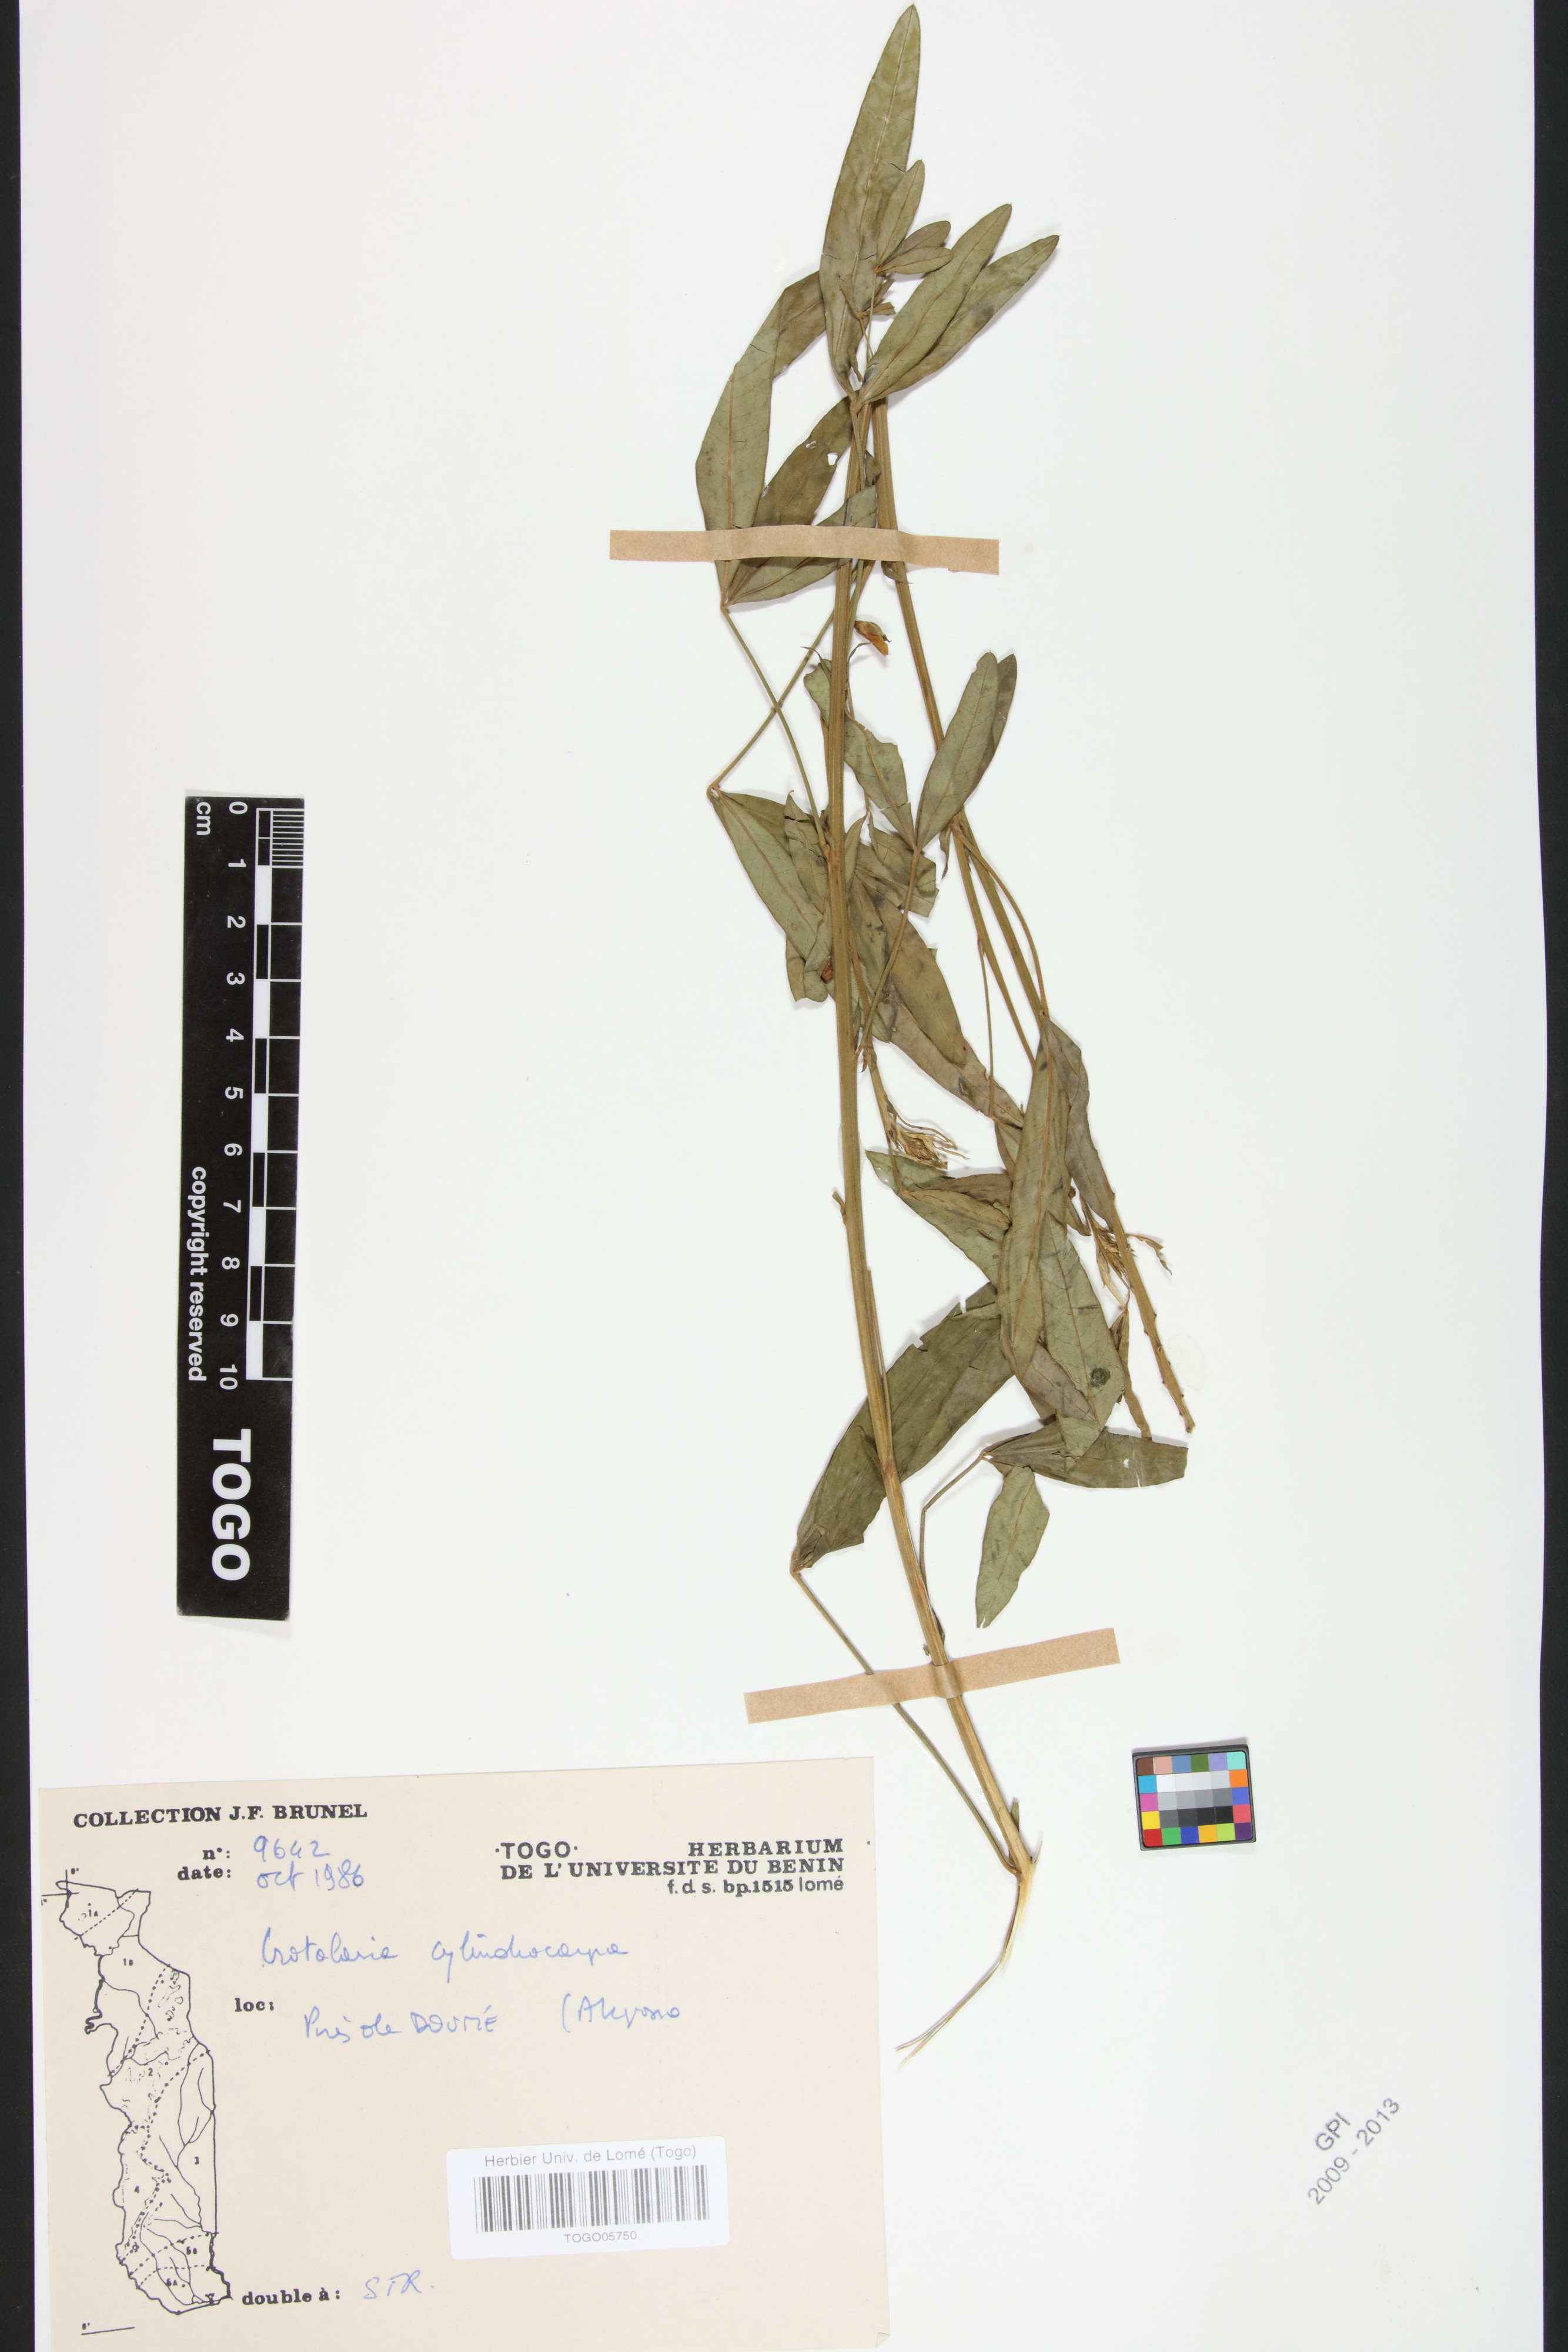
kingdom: Plantae
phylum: Tracheophyta
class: Magnoliopsida
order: Fabales
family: Fabaceae
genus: Crotalaria
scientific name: Crotalaria cylindrocarpa
